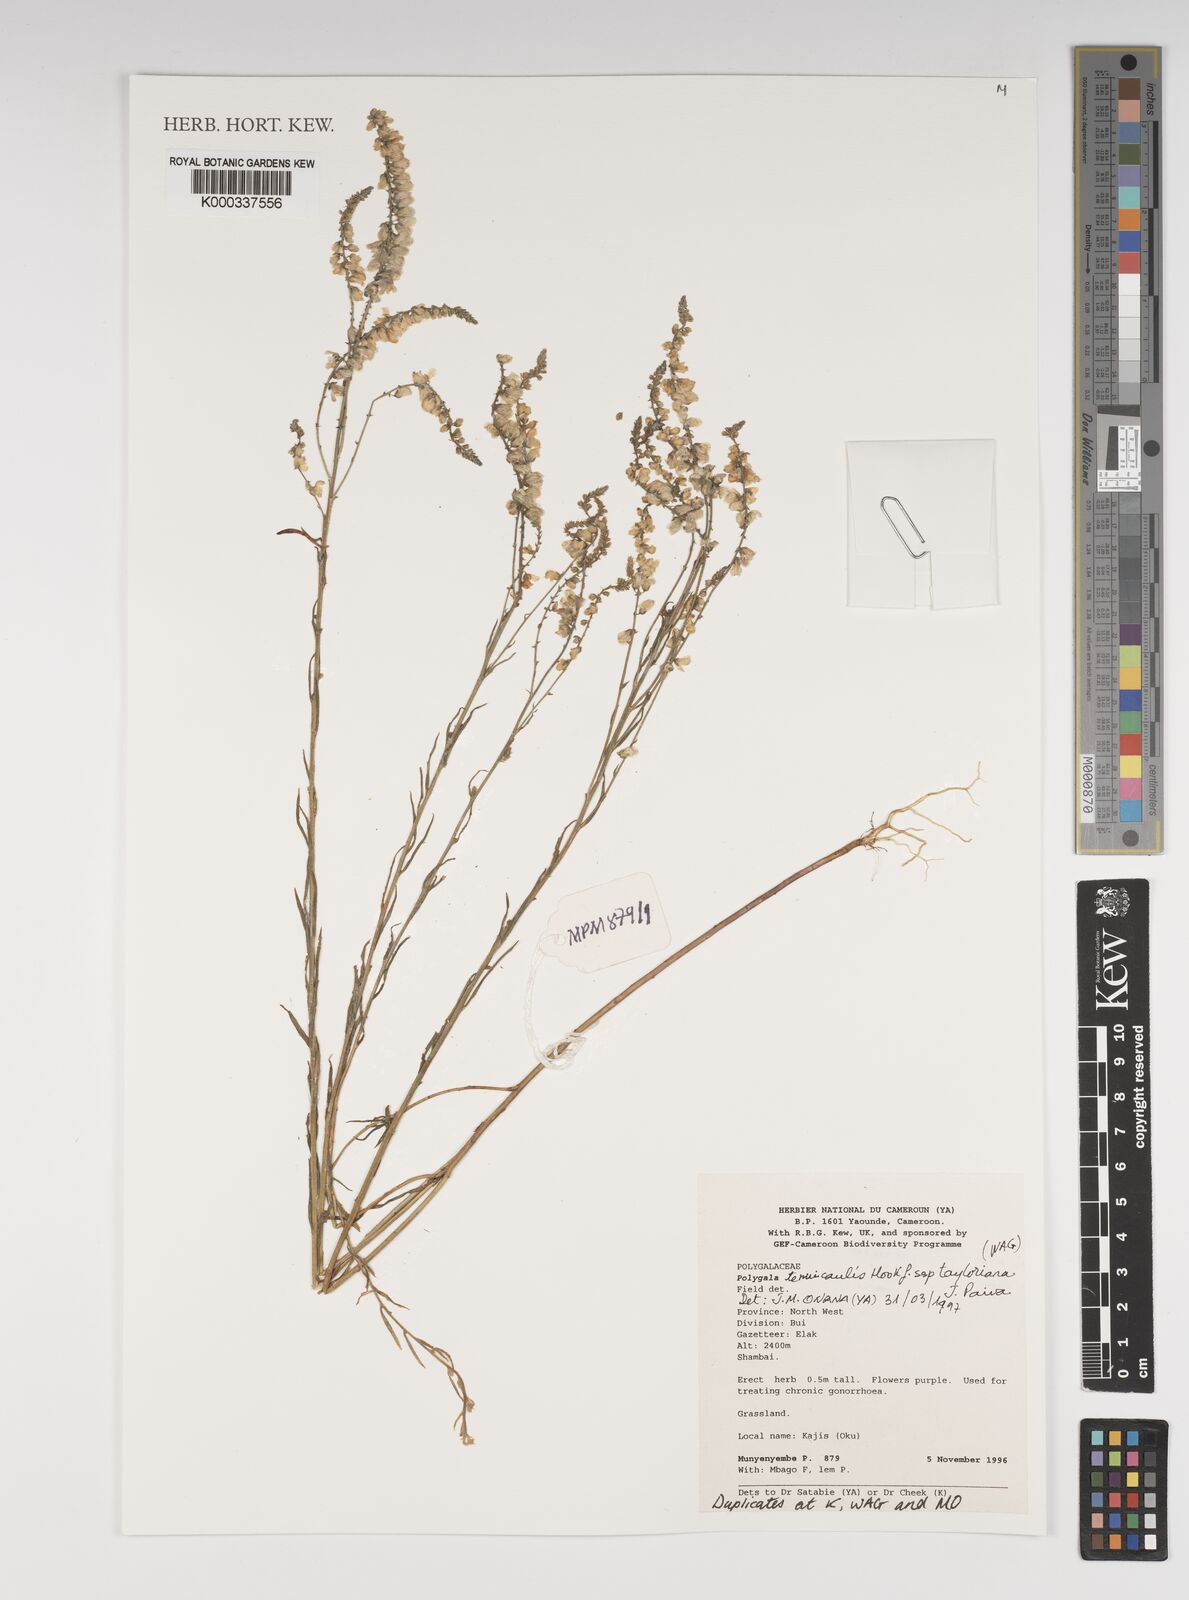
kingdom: Plantae
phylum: Tracheophyta
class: Magnoliopsida
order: Fabales
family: Polygalaceae
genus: Polygala
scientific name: Polygala tenuicaulis
